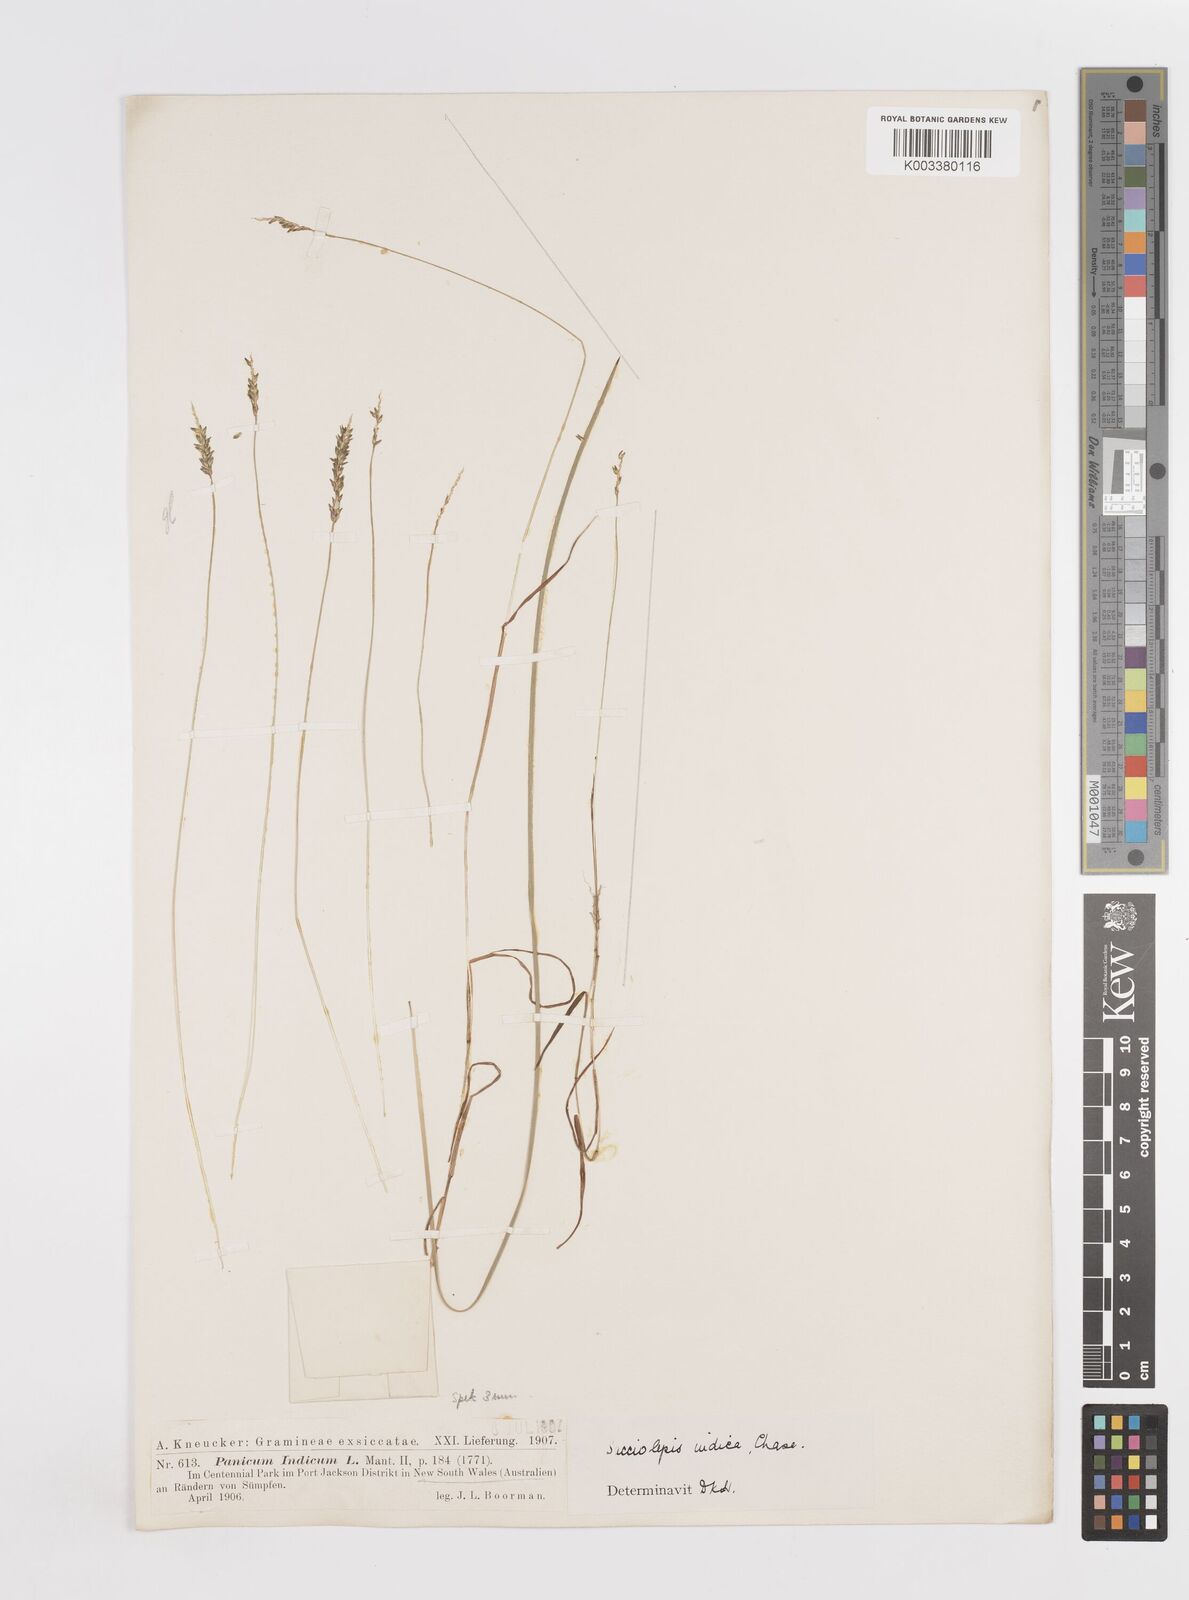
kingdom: Plantae
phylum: Tracheophyta
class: Liliopsida
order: Poales
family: Poaceae
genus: Sacciolepis
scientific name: Sacciolepis indica
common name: Glenwoodgrass
